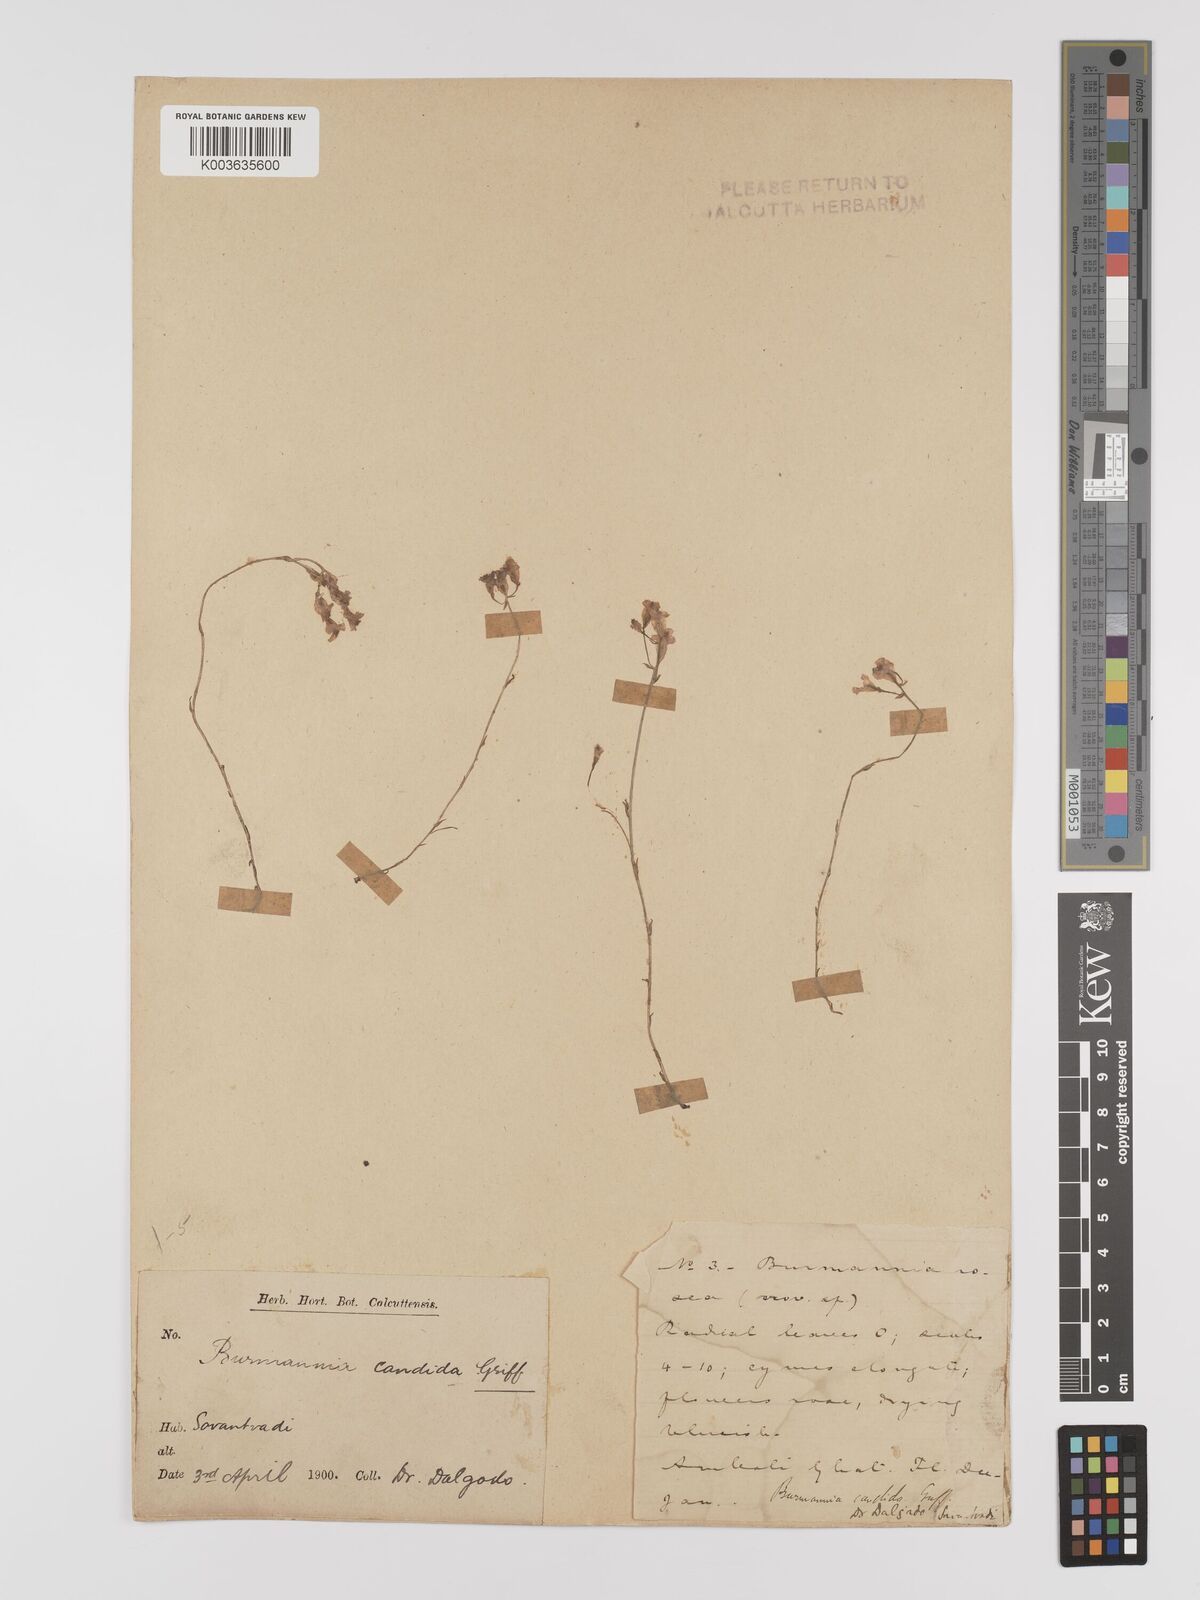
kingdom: Plantae
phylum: Tracheophyta
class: Liliopsida
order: Dioscoreales
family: Burmanniaceae
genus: Burmannia
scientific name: Burmannia candida
